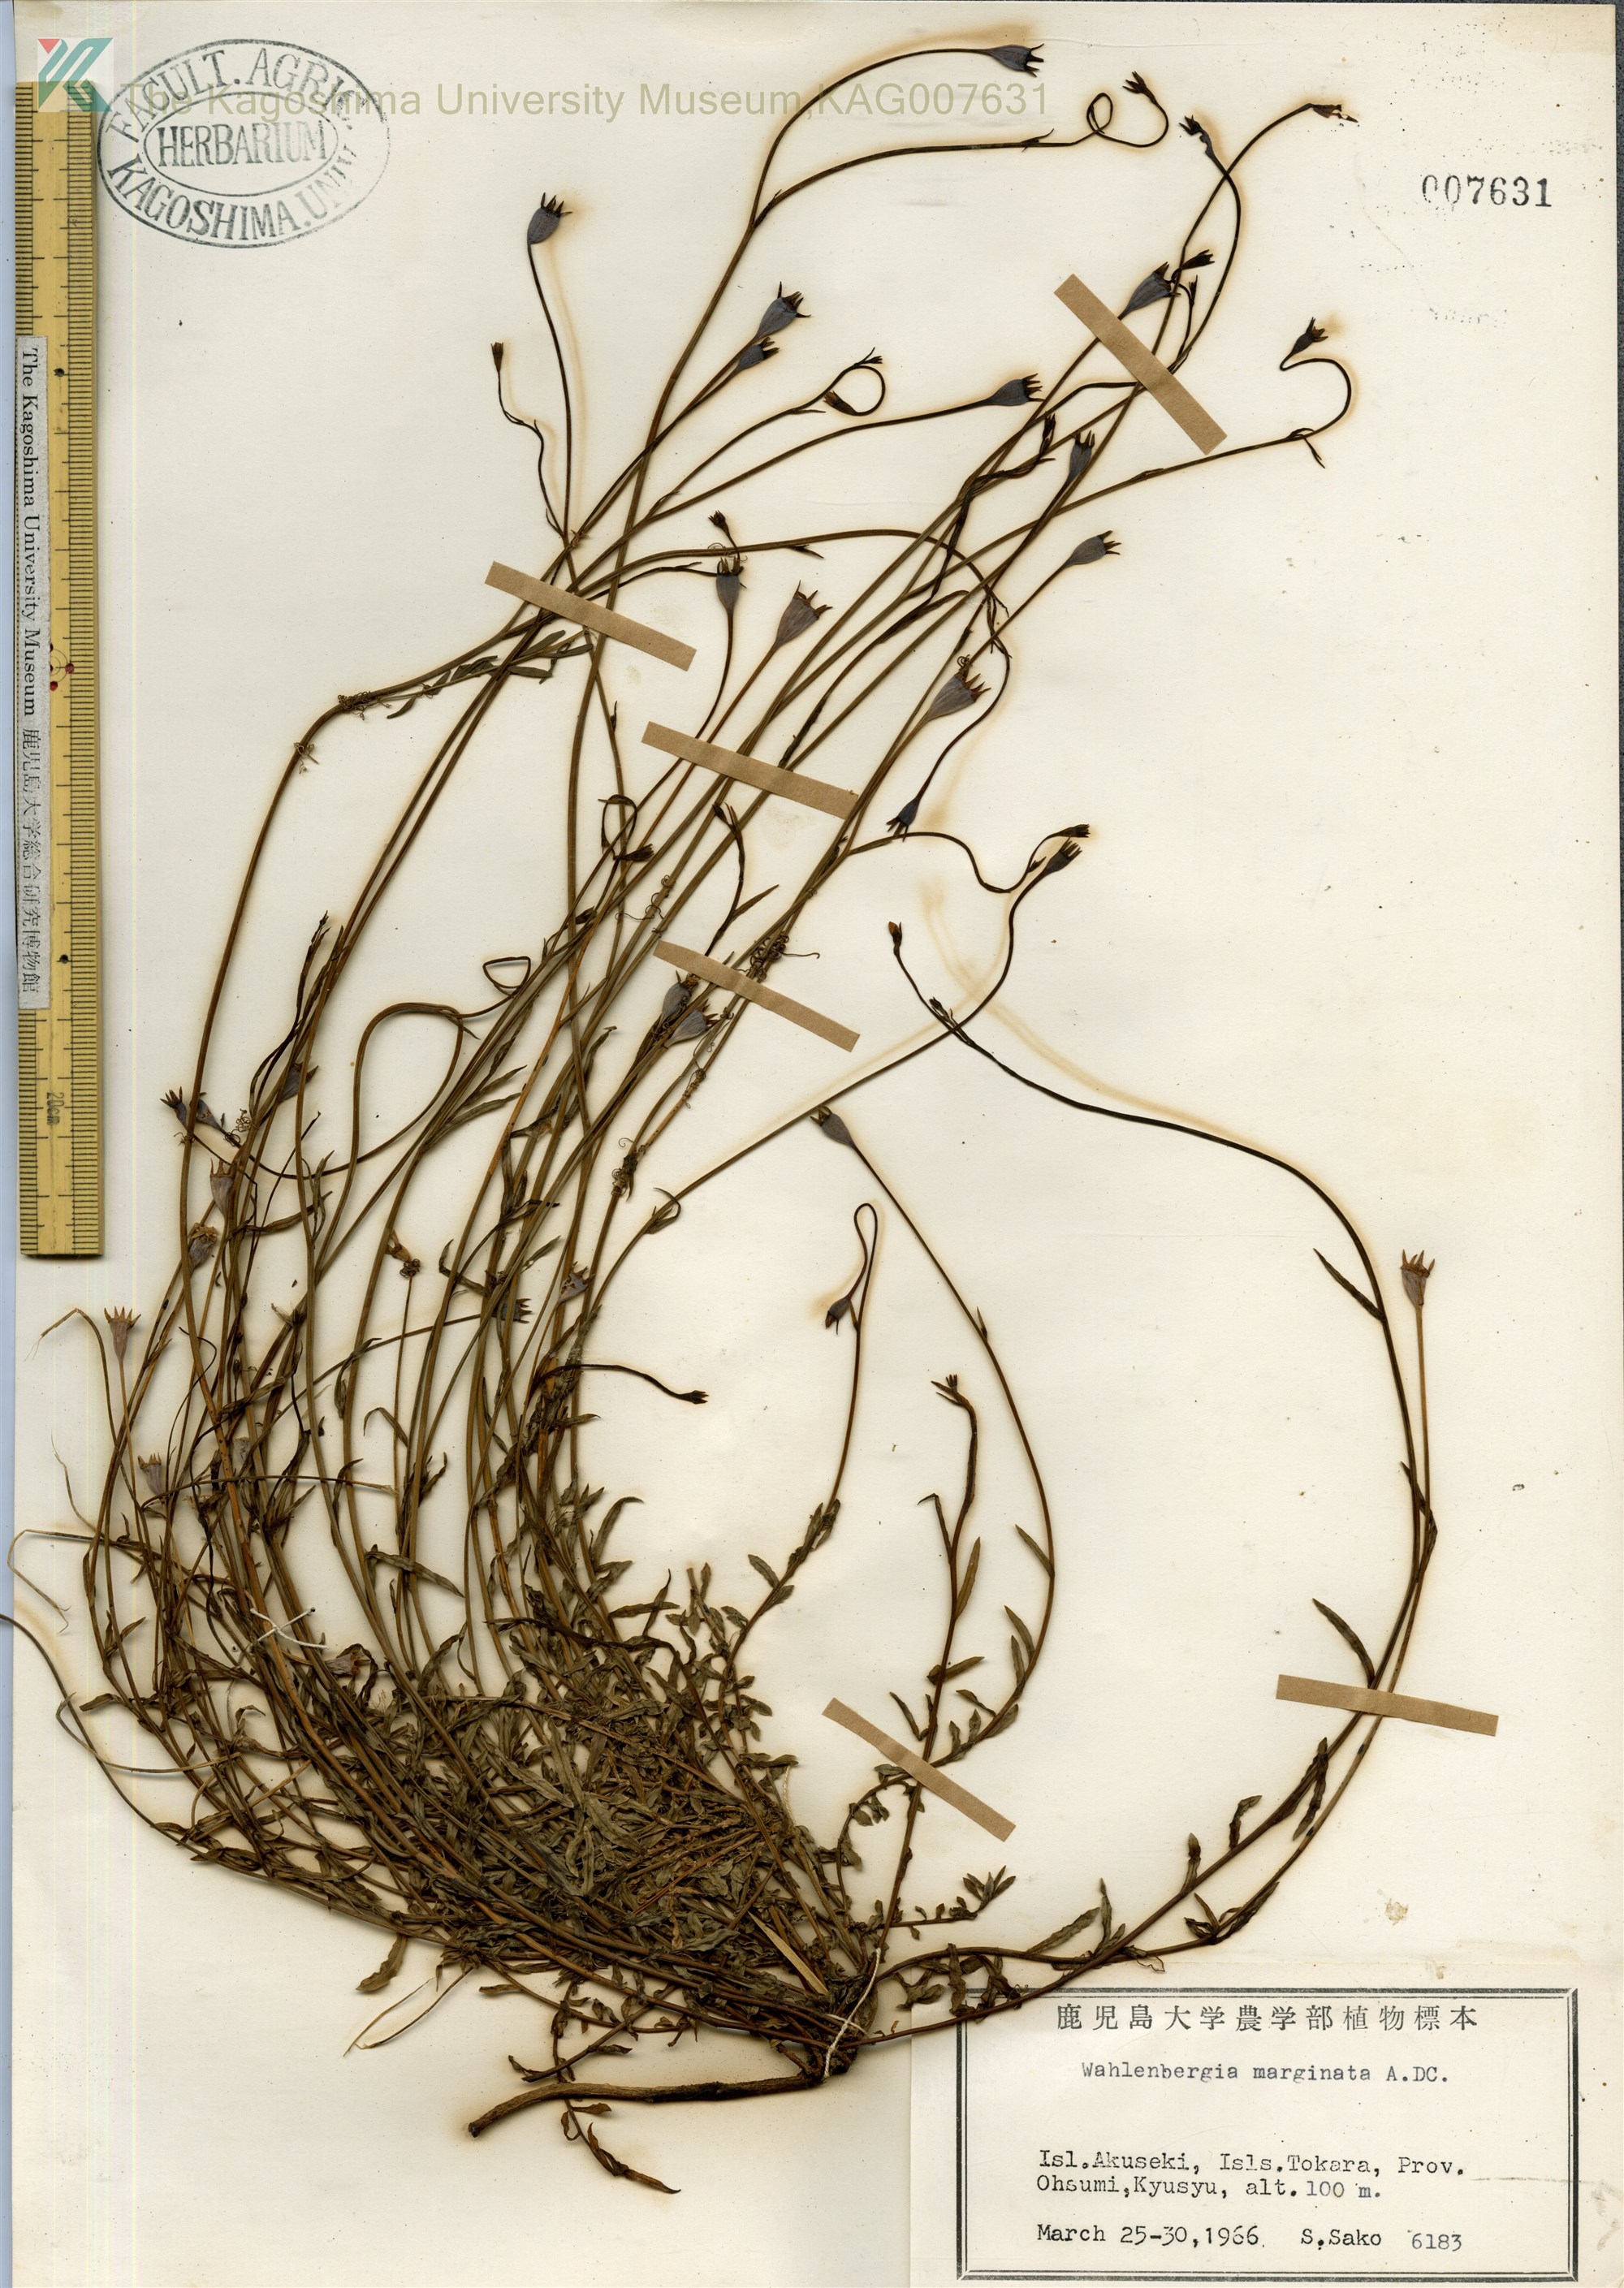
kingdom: Plantae
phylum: Tracheophyta
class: Magnoliopsida
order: Asterales
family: Campanulaceae
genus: Wahlenbergia
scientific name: Wahlenbergia marginata
